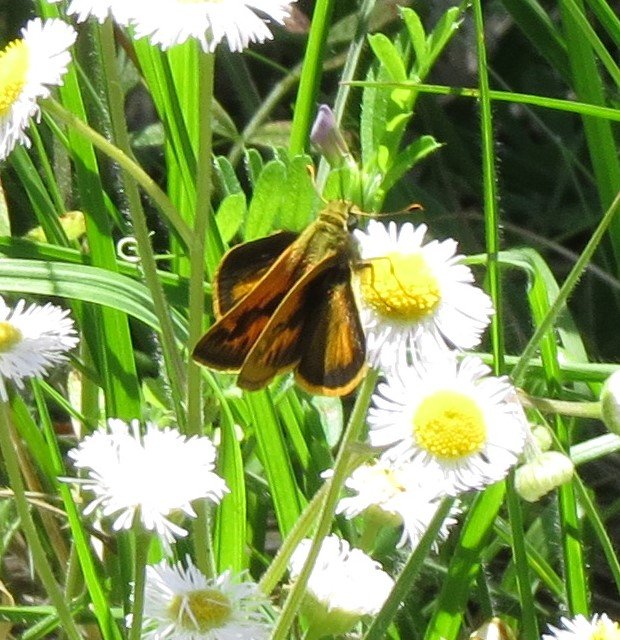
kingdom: Animalia
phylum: Arthropoda
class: Insecta
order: Lepidoptera
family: Hesperiidae
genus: Polites
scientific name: Polites vibex
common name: Whirlabout
